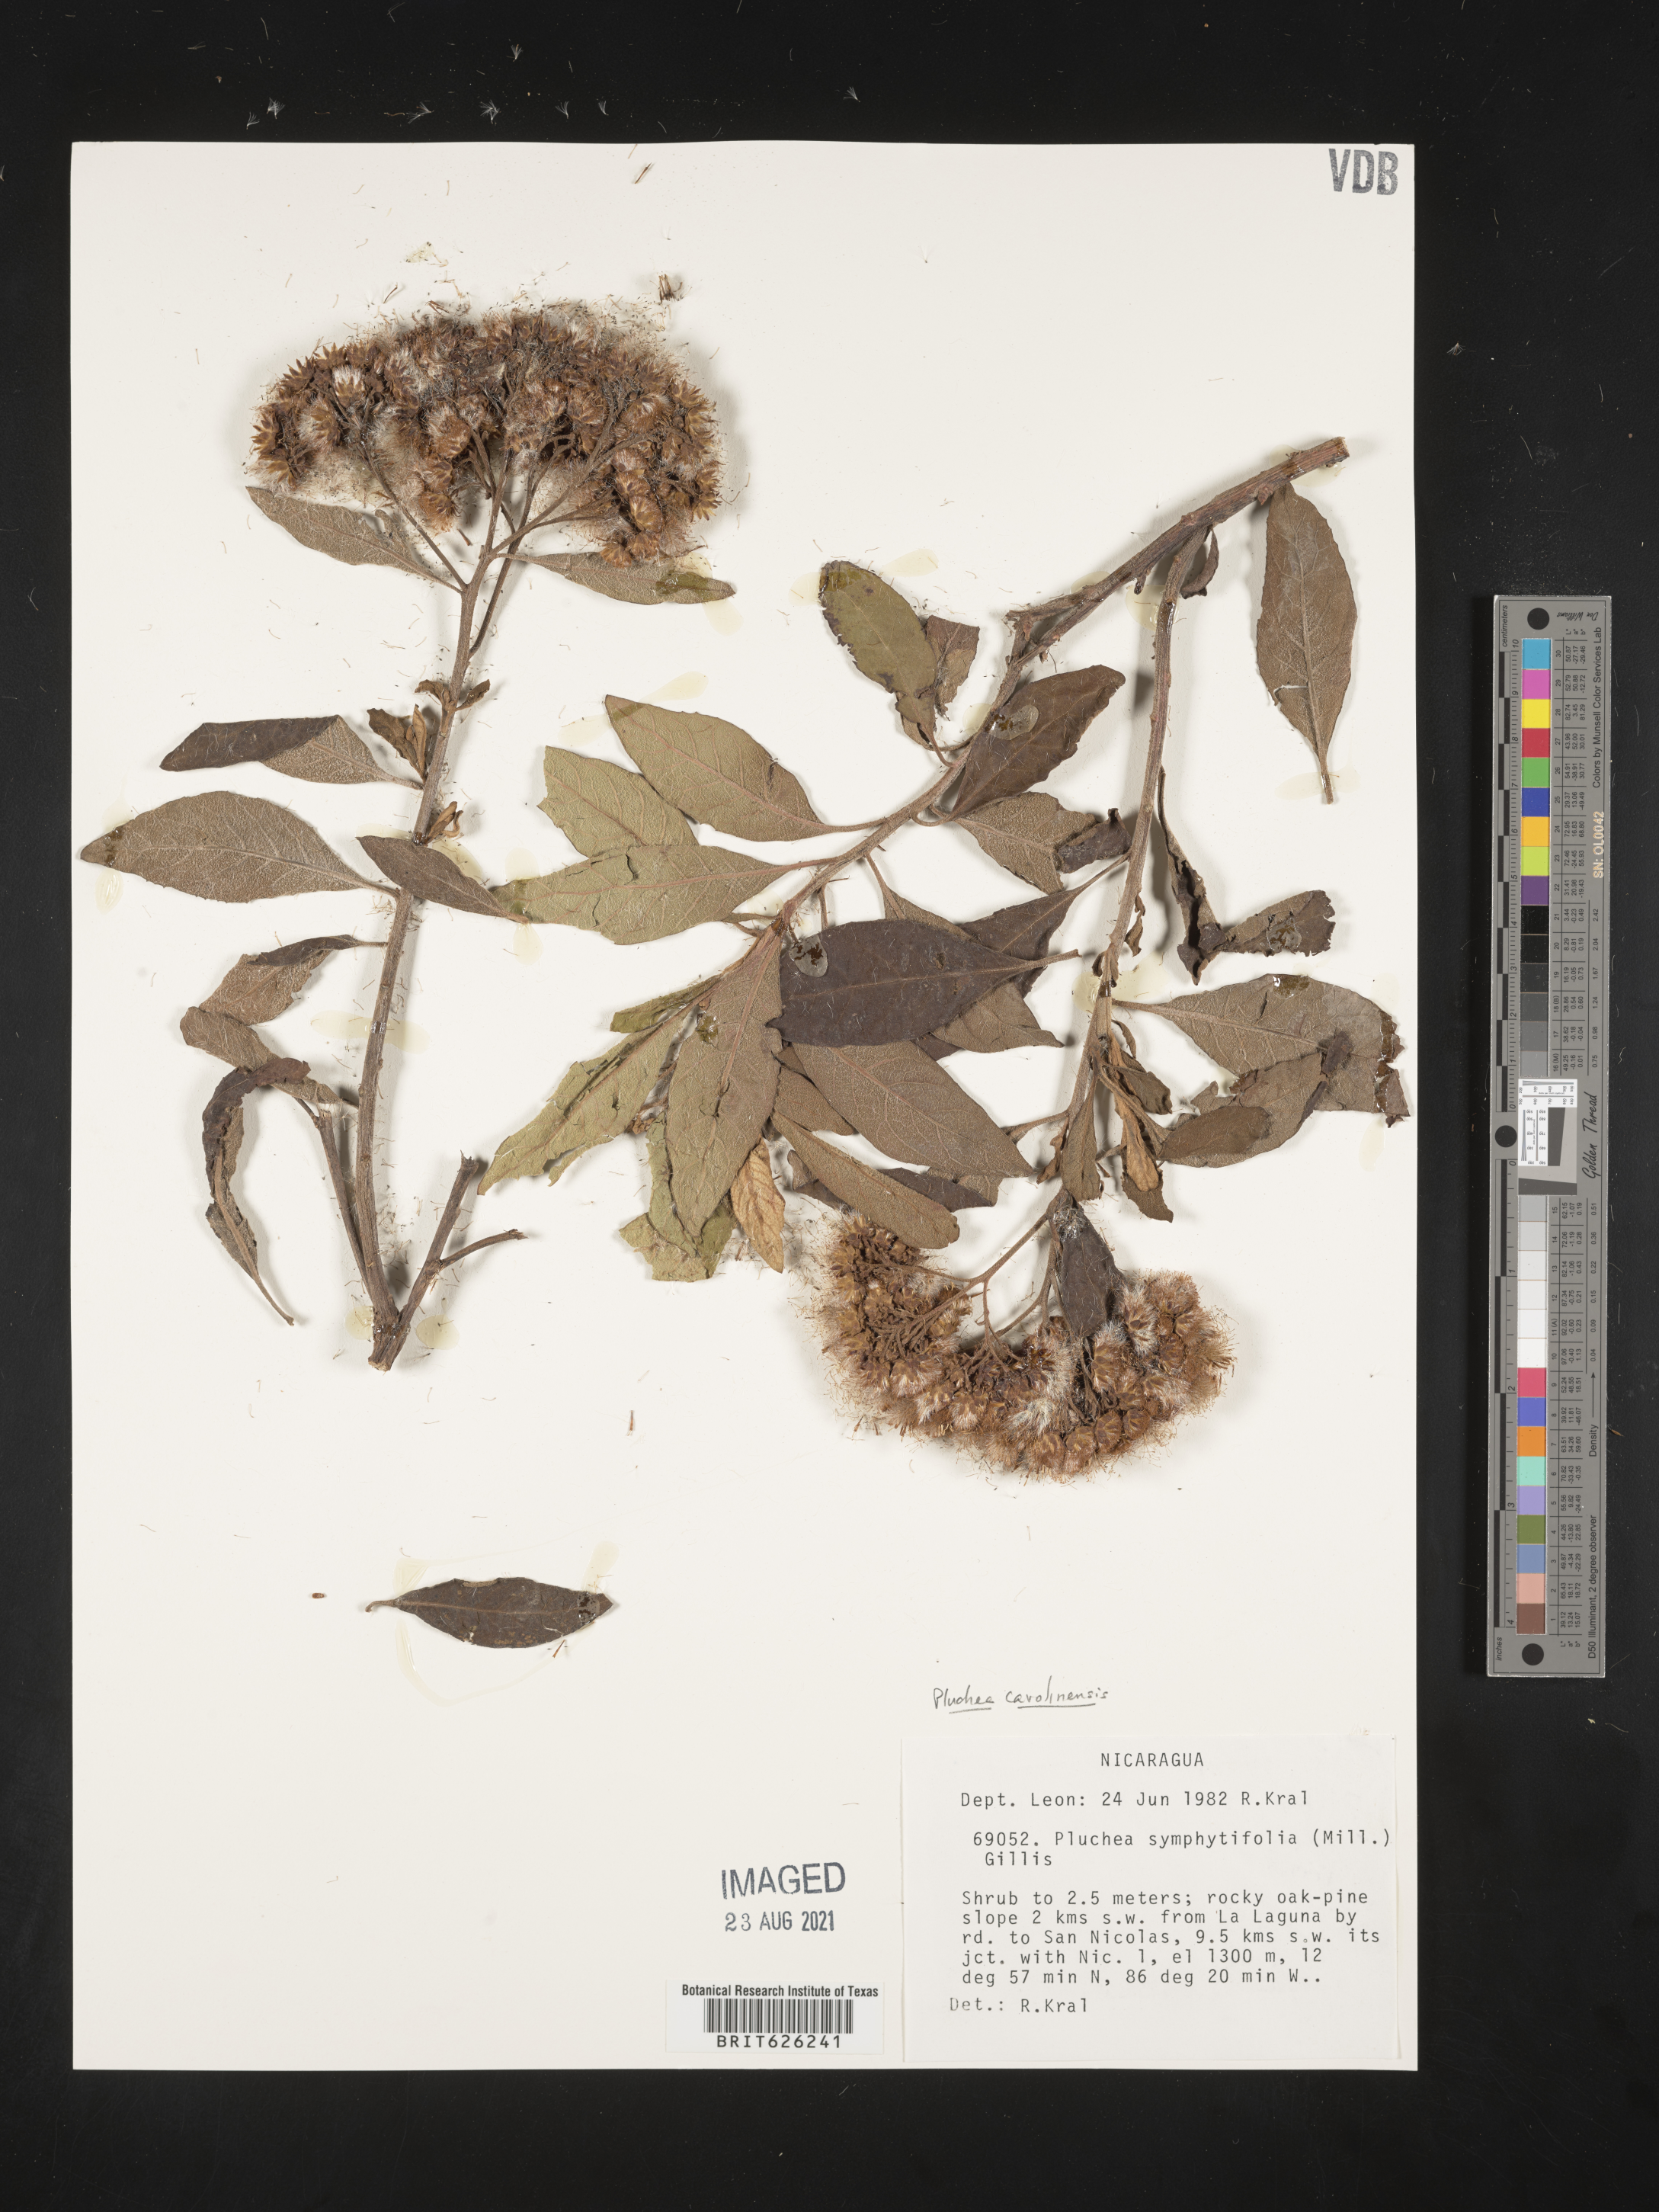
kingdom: Plantae
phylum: Tracheophyta
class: Magnoliopsida
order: Asterales
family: Asteraceae
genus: Pluchea
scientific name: Pluchea carolinensis
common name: Marsh fleabane
